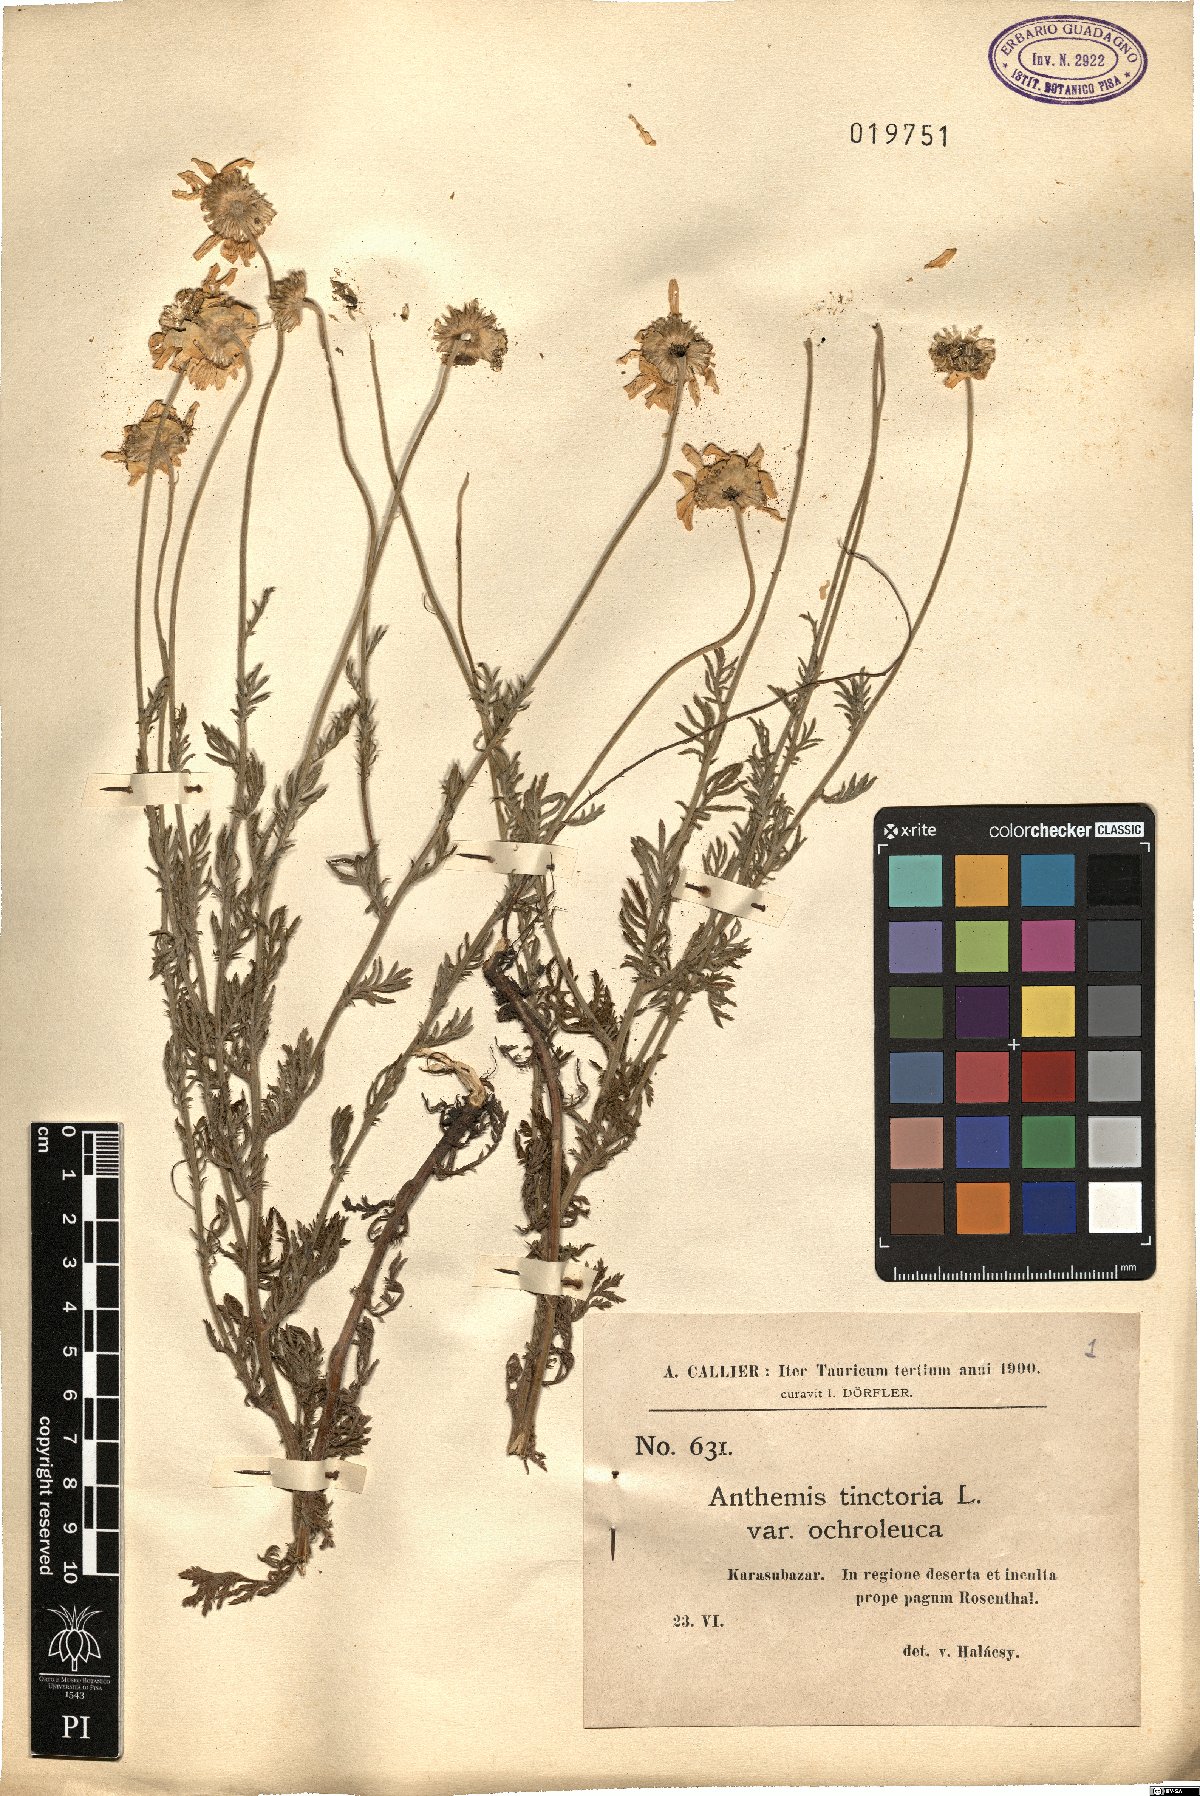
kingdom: Plantae
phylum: Tracheophyta
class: Magnoliopsida
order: Asterales
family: Asteraceae
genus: Cota
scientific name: Cota tinctoria
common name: Golden chamomile
